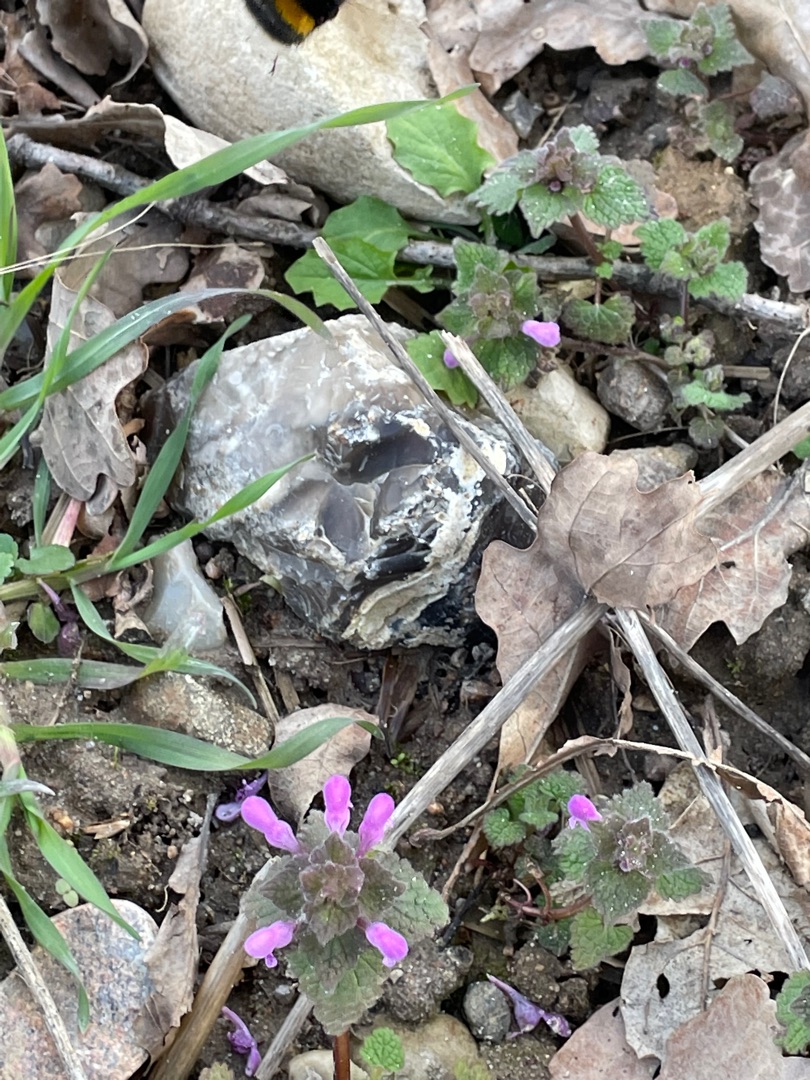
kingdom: Plantae
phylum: Tracheophyta
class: Magnoliopsida
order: Lamiales
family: Lamiaceae
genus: Lamium
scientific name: Lamium purpureum
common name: Rød tvetand
